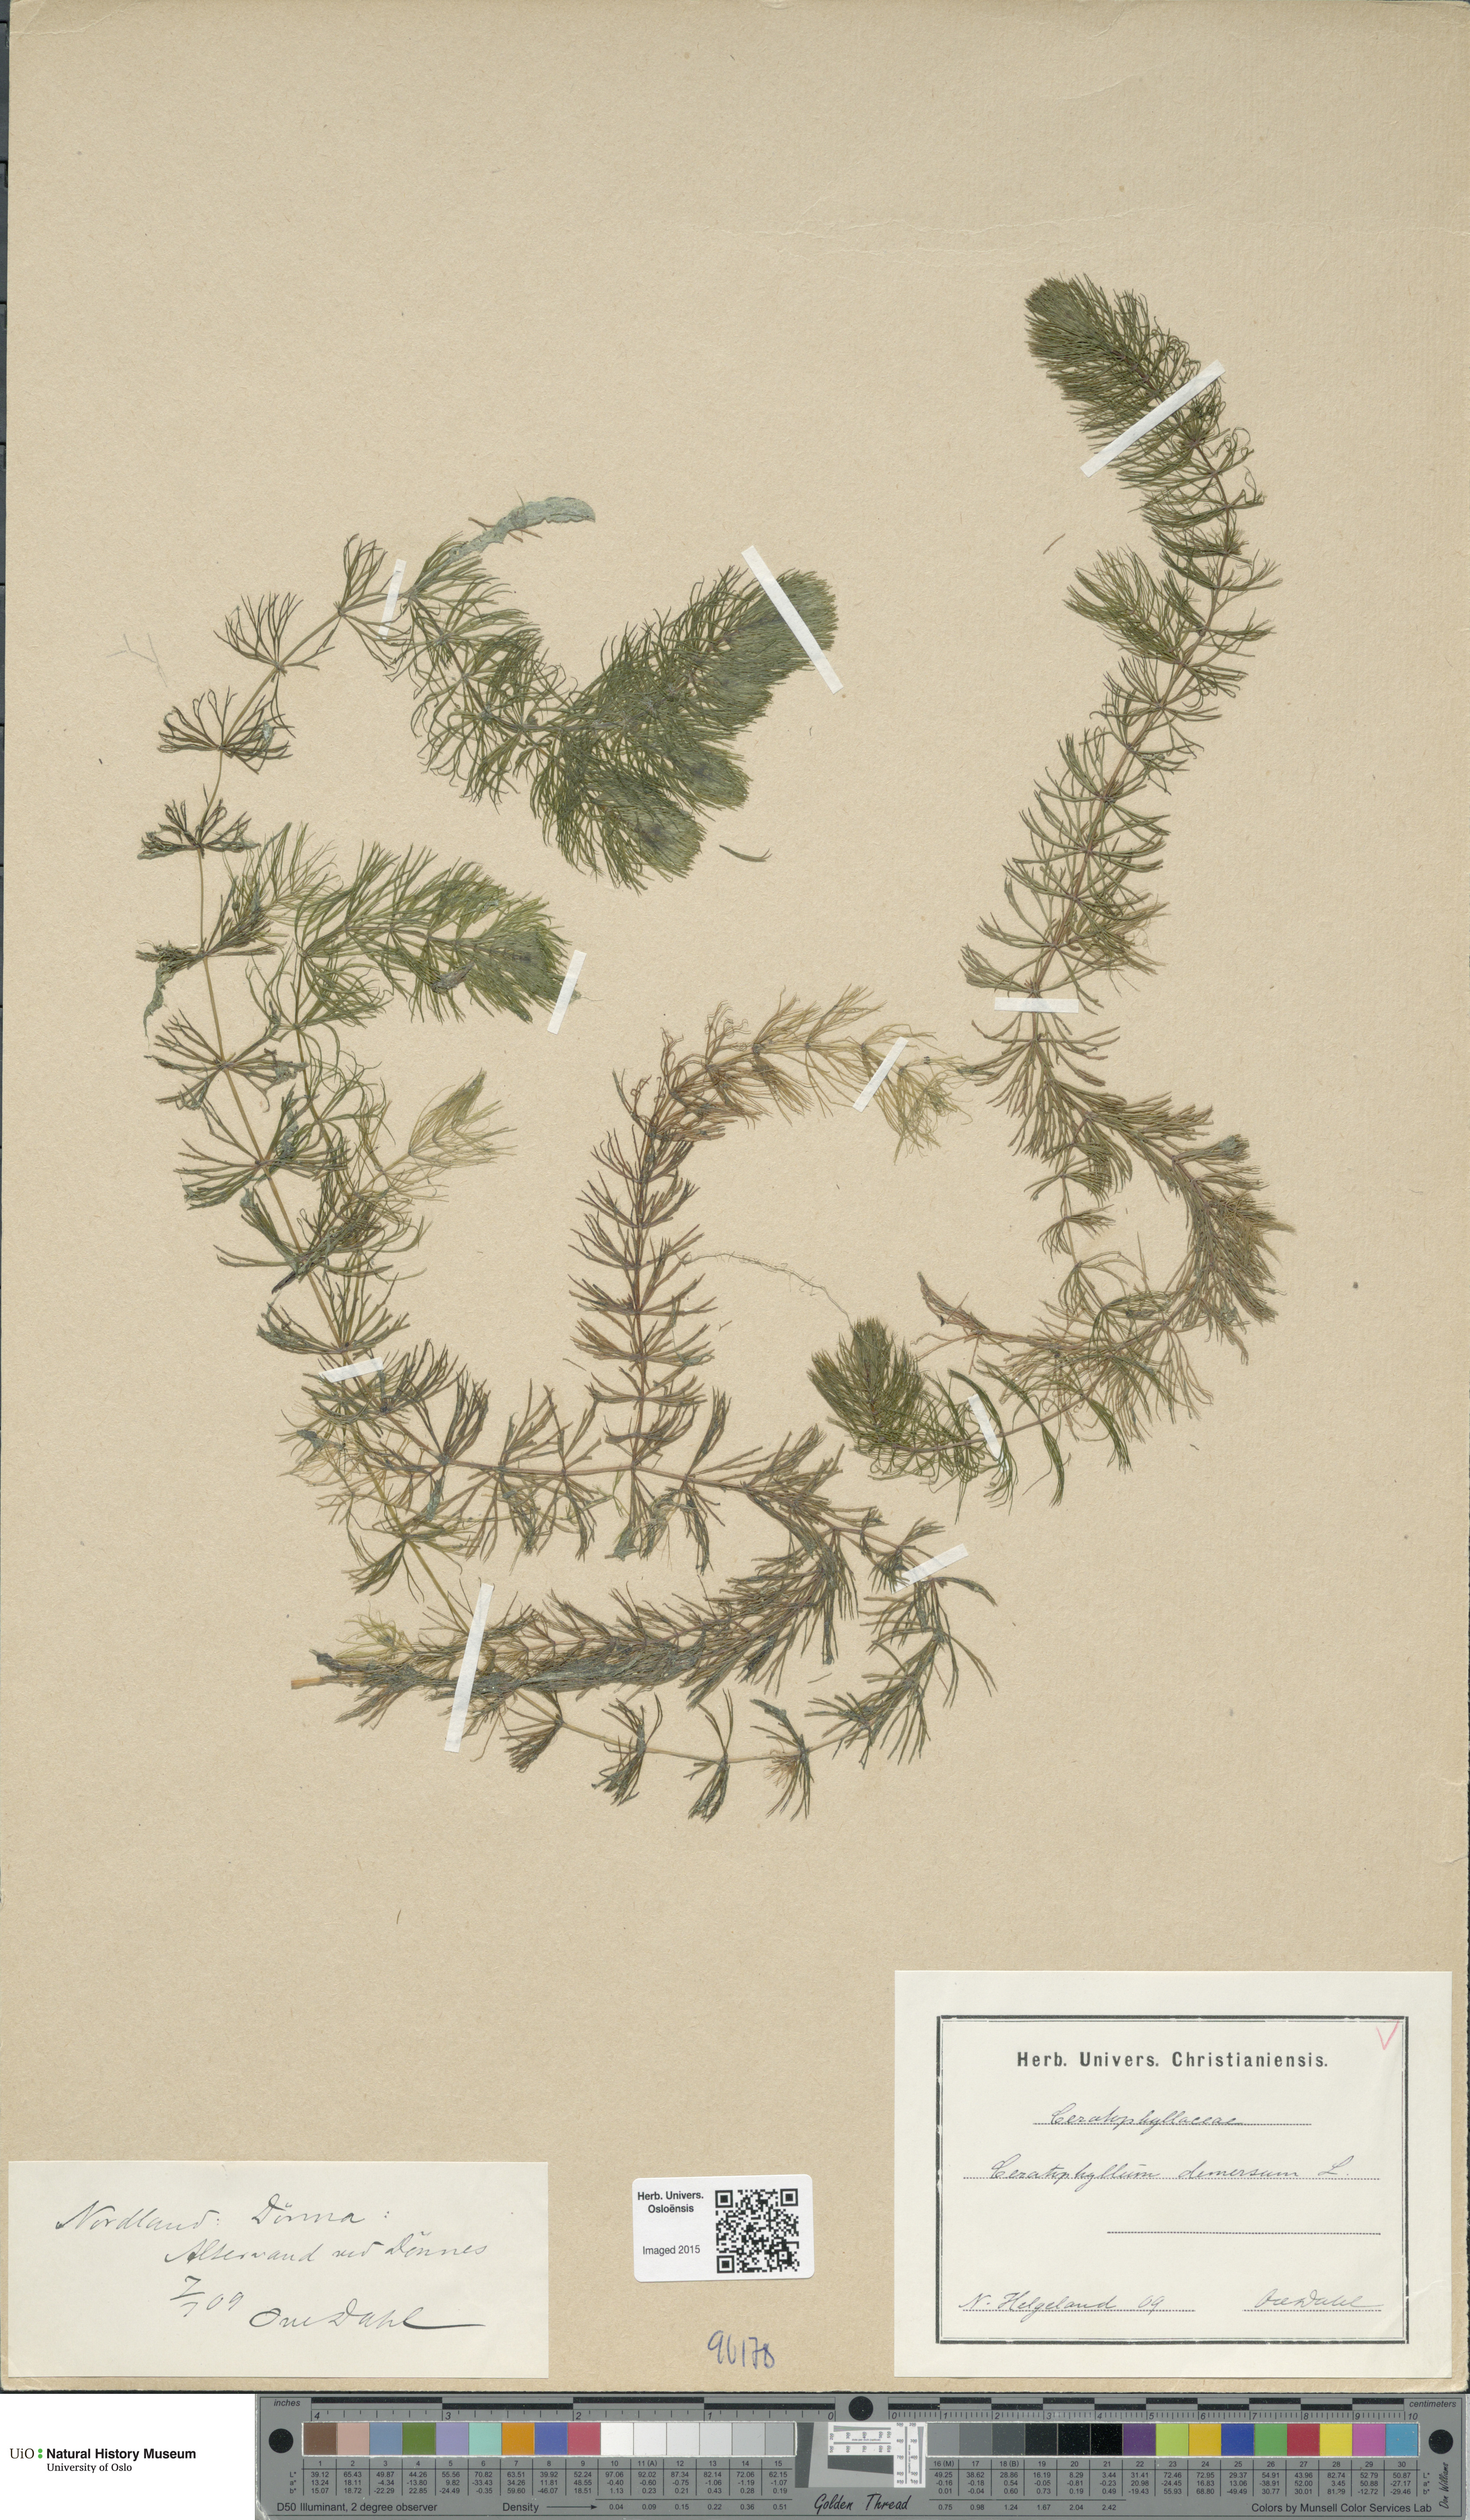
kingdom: Plantae
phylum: Tracheophyta
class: Magnoliopsida
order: Ceratophyllales
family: Ceratophyllaceae
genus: Ceratophyllum
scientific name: Ceratophyllum demersum
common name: Rigid hornwort
